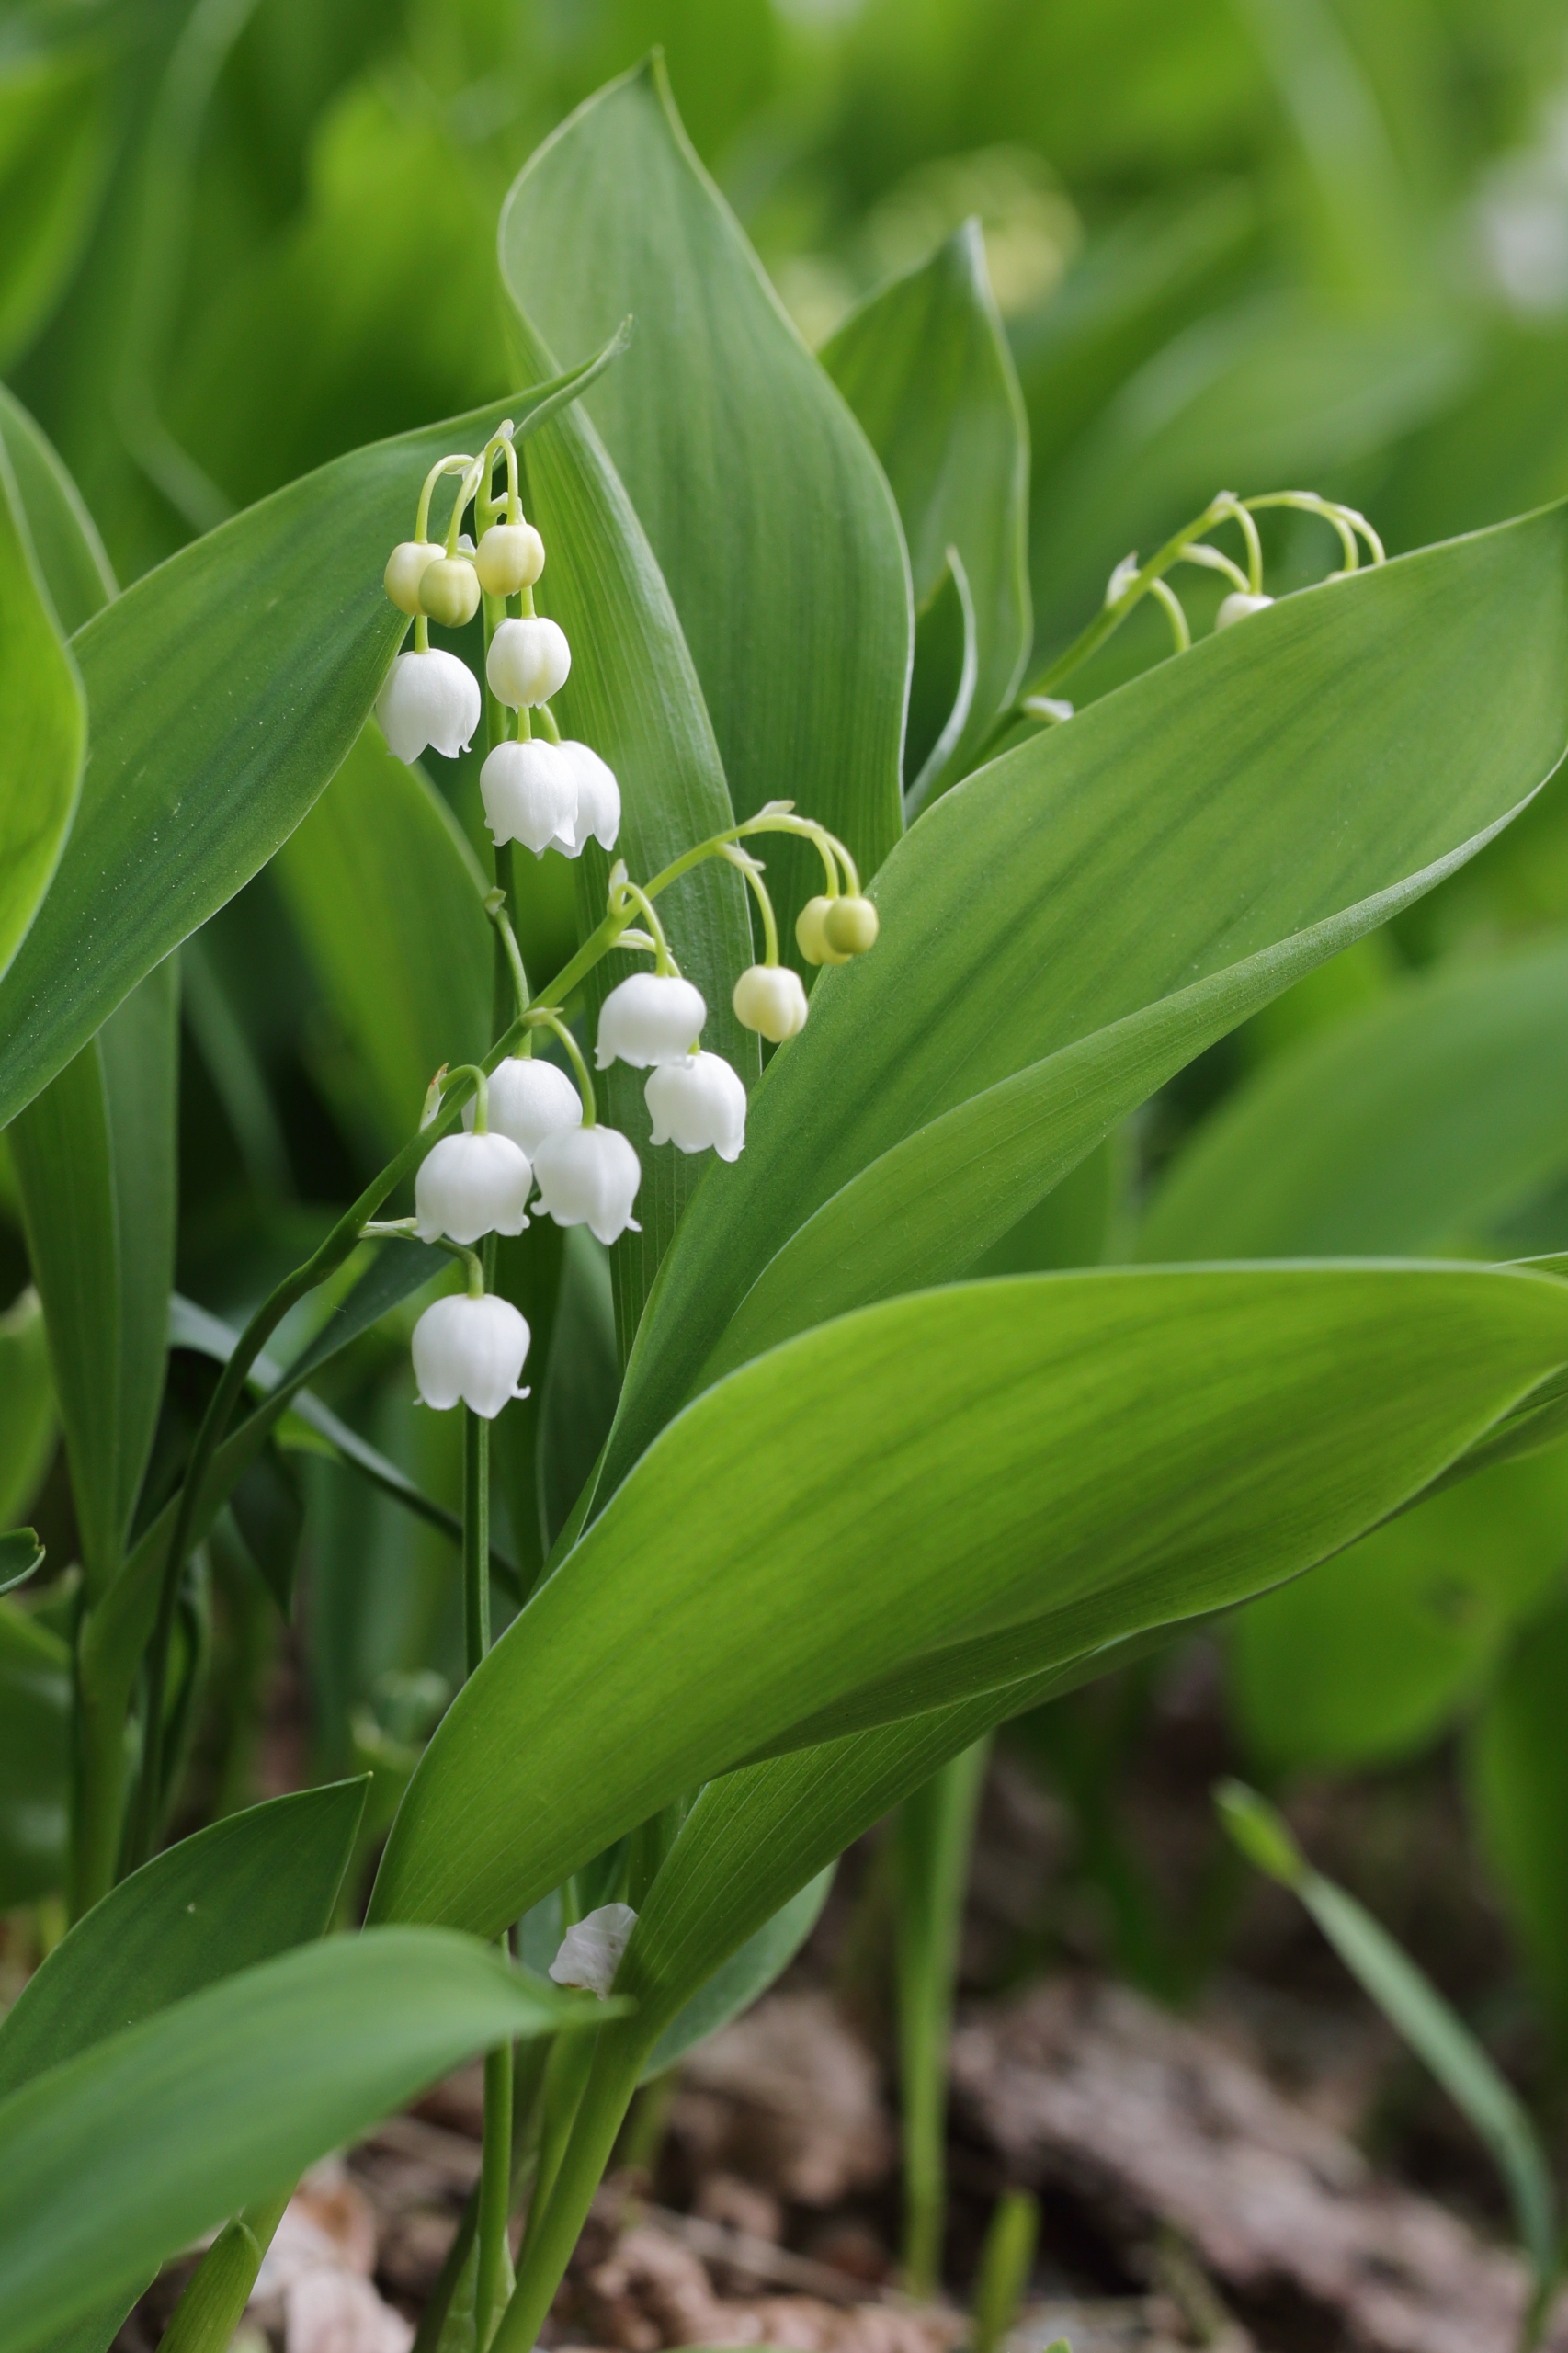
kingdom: Plantae
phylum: Tracheophyta
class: Liliopsida
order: Asparagales
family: Asparagaceae
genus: Convallaria
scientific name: Convallaria majalis
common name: Liljekonval
